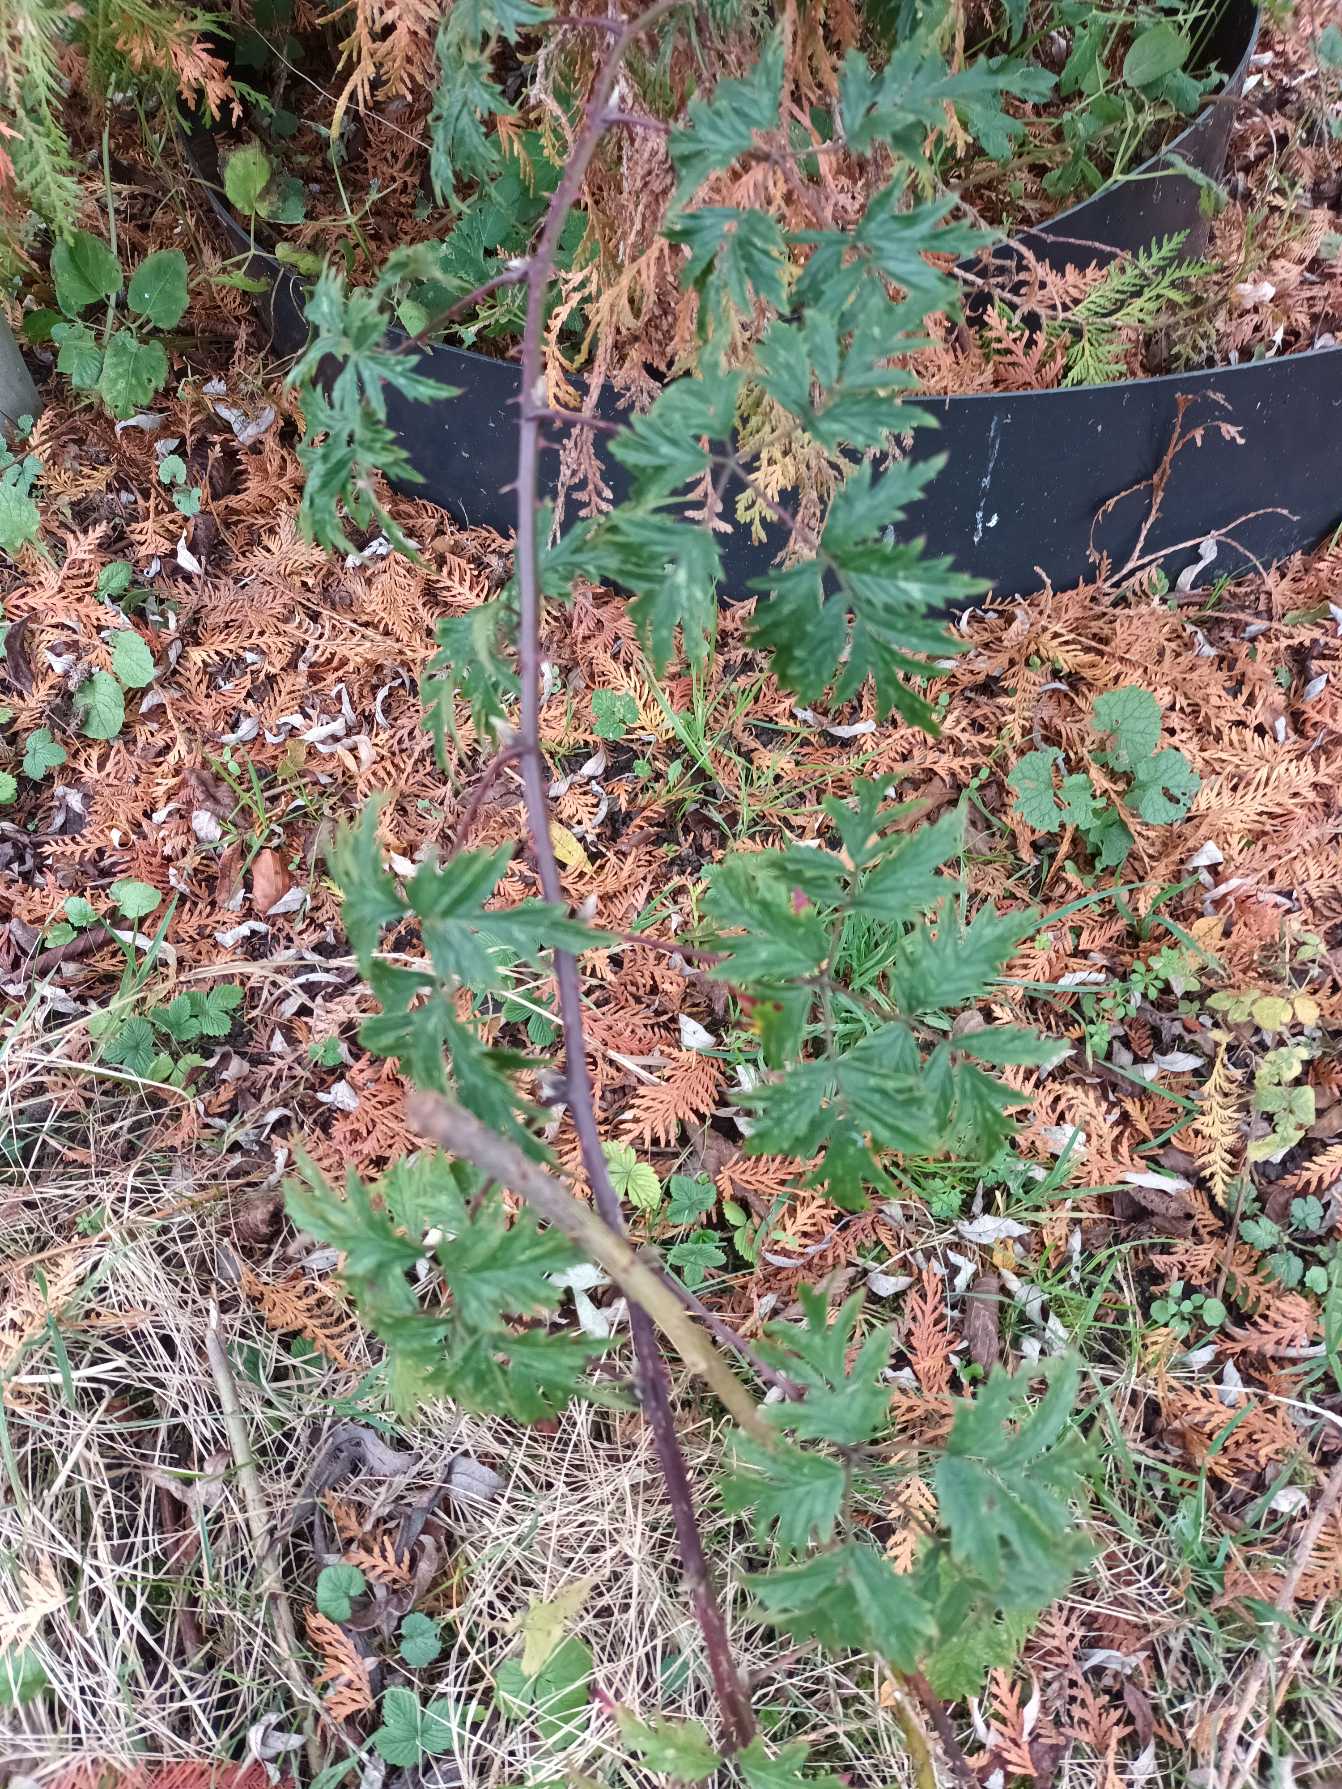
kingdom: Plantae
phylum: Tracheophyta
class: Magnoliopsida
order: Rosales
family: Rosaceae
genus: Rubus
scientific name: Rubus laciniatus
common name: Fliget brombær
